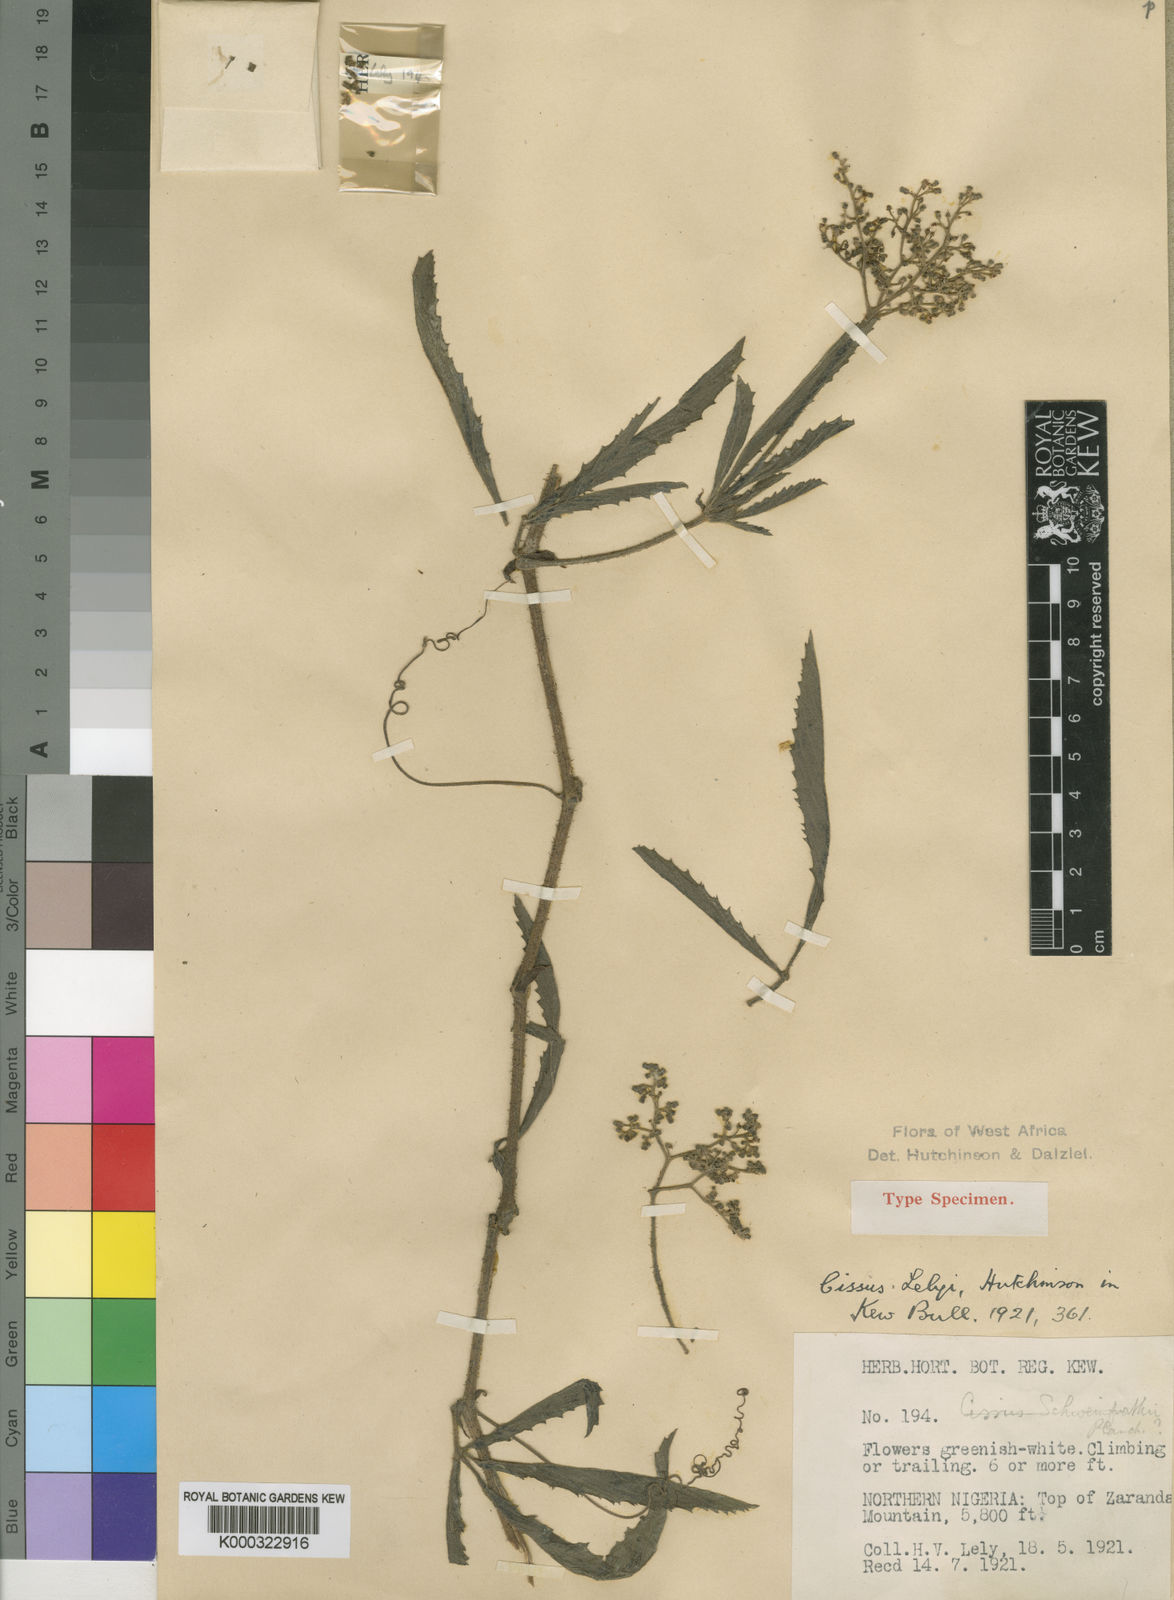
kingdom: Plantae
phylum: Tracheophyta
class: Magnoliopsida
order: Vitales
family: Vitaceae
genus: Cyphostemma
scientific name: Cyphostemma serpens
